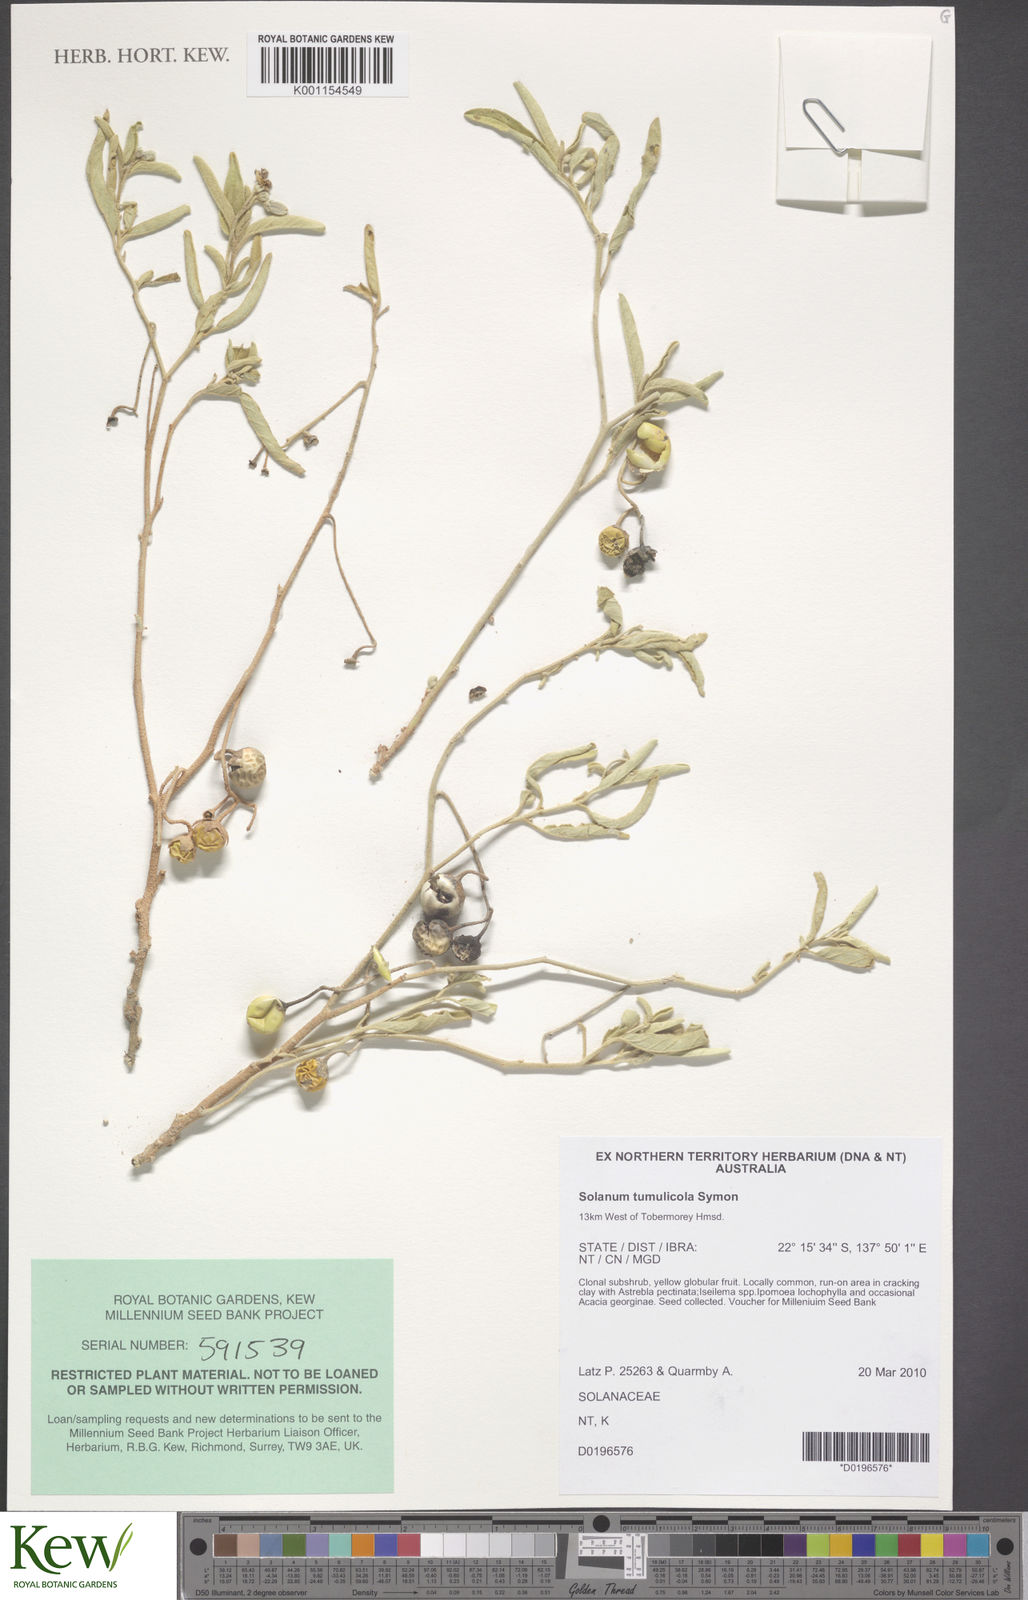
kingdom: Plantae
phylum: Tracheophyta
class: Magnoliopsida
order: Solanales
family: Solanaceae
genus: Solanum
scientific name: Solanum tumulicola
